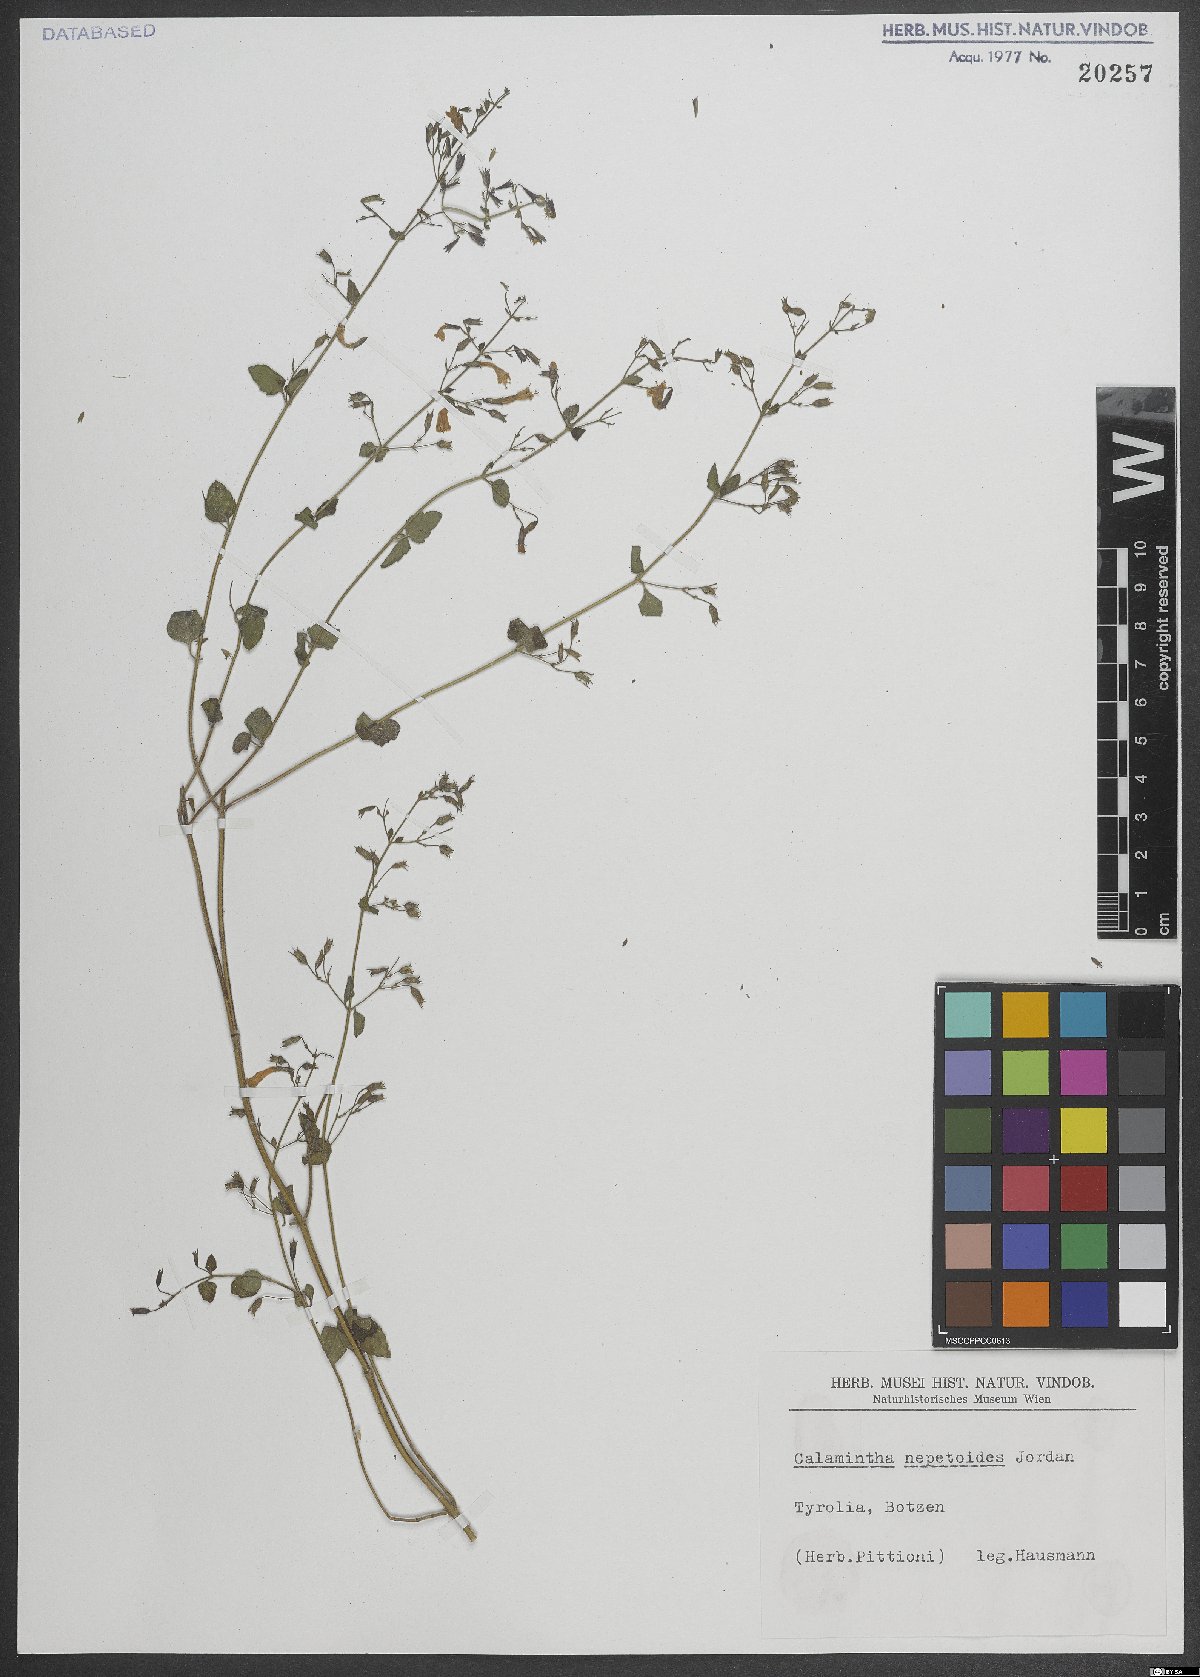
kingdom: Plantae
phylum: Tracheophyta
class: Magnoliopsida
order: Lamiales
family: Lamiaceae
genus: Clinopodium
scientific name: Clinopodium nepeta
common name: Lesser calamint
